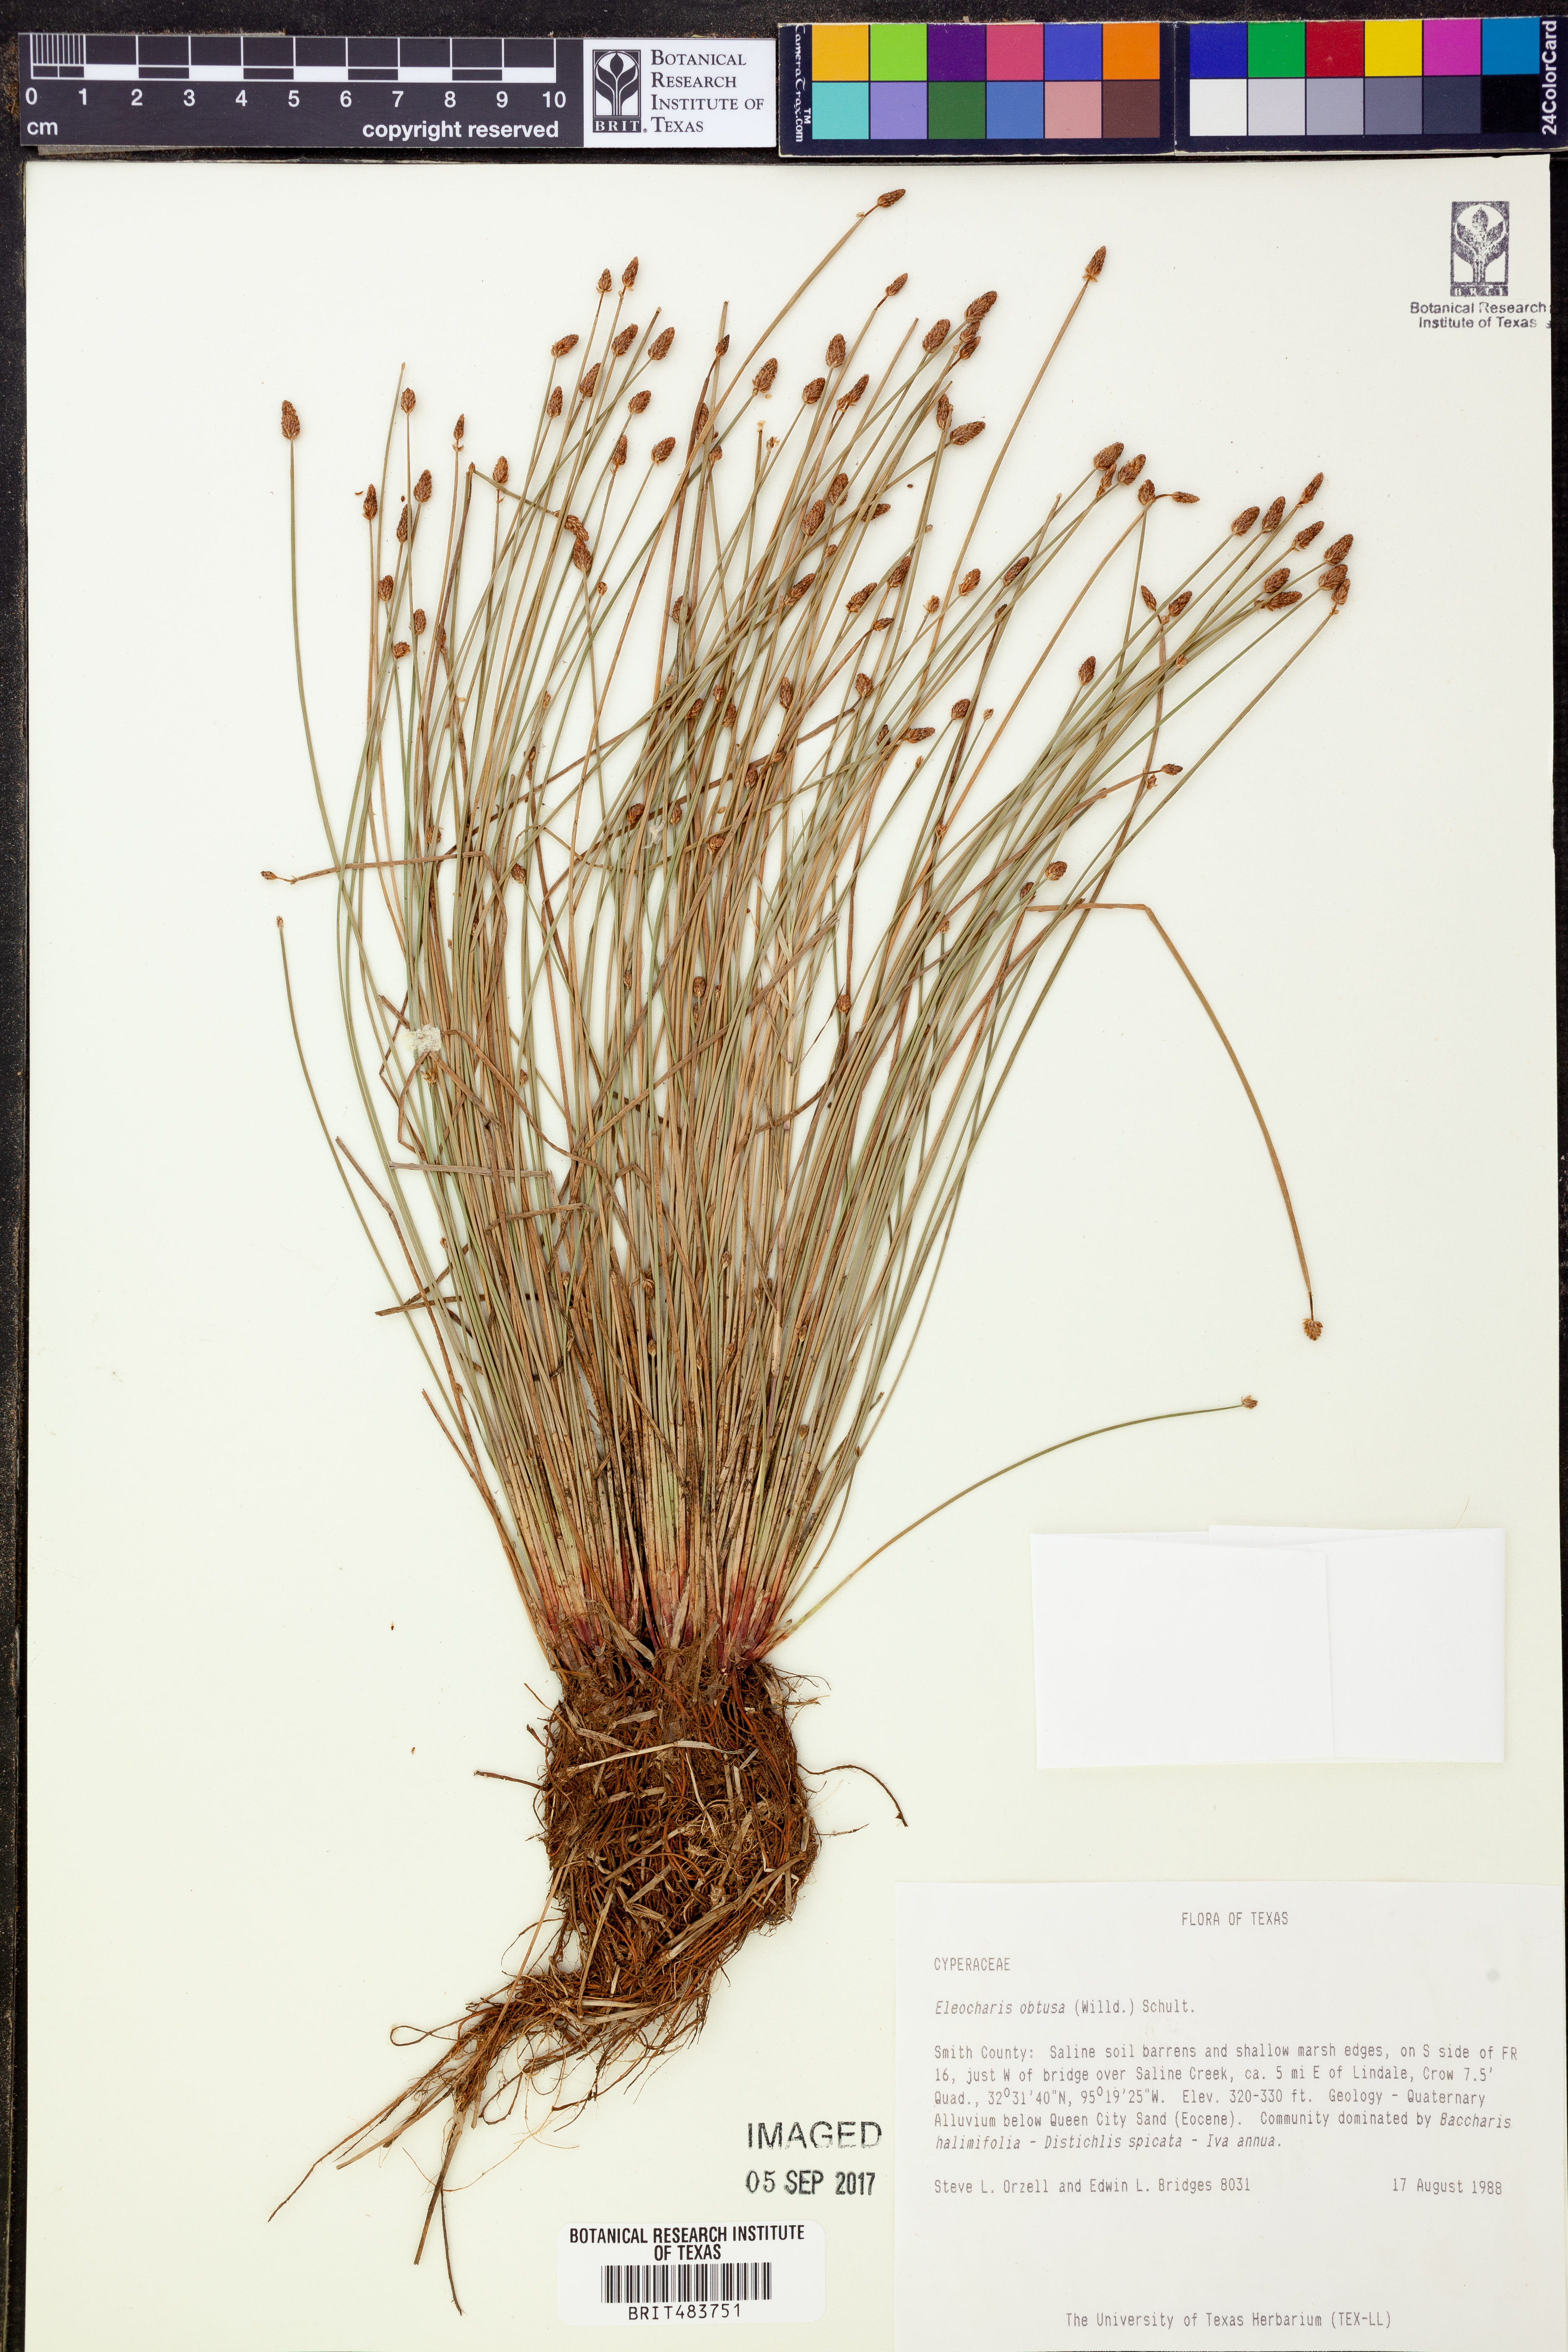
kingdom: Plantae
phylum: Tracheophyta
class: Liliopsida
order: Poales
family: Cyperaceae
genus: Eleocharis
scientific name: Eleocharis obtusa
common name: Blunt spikerush
